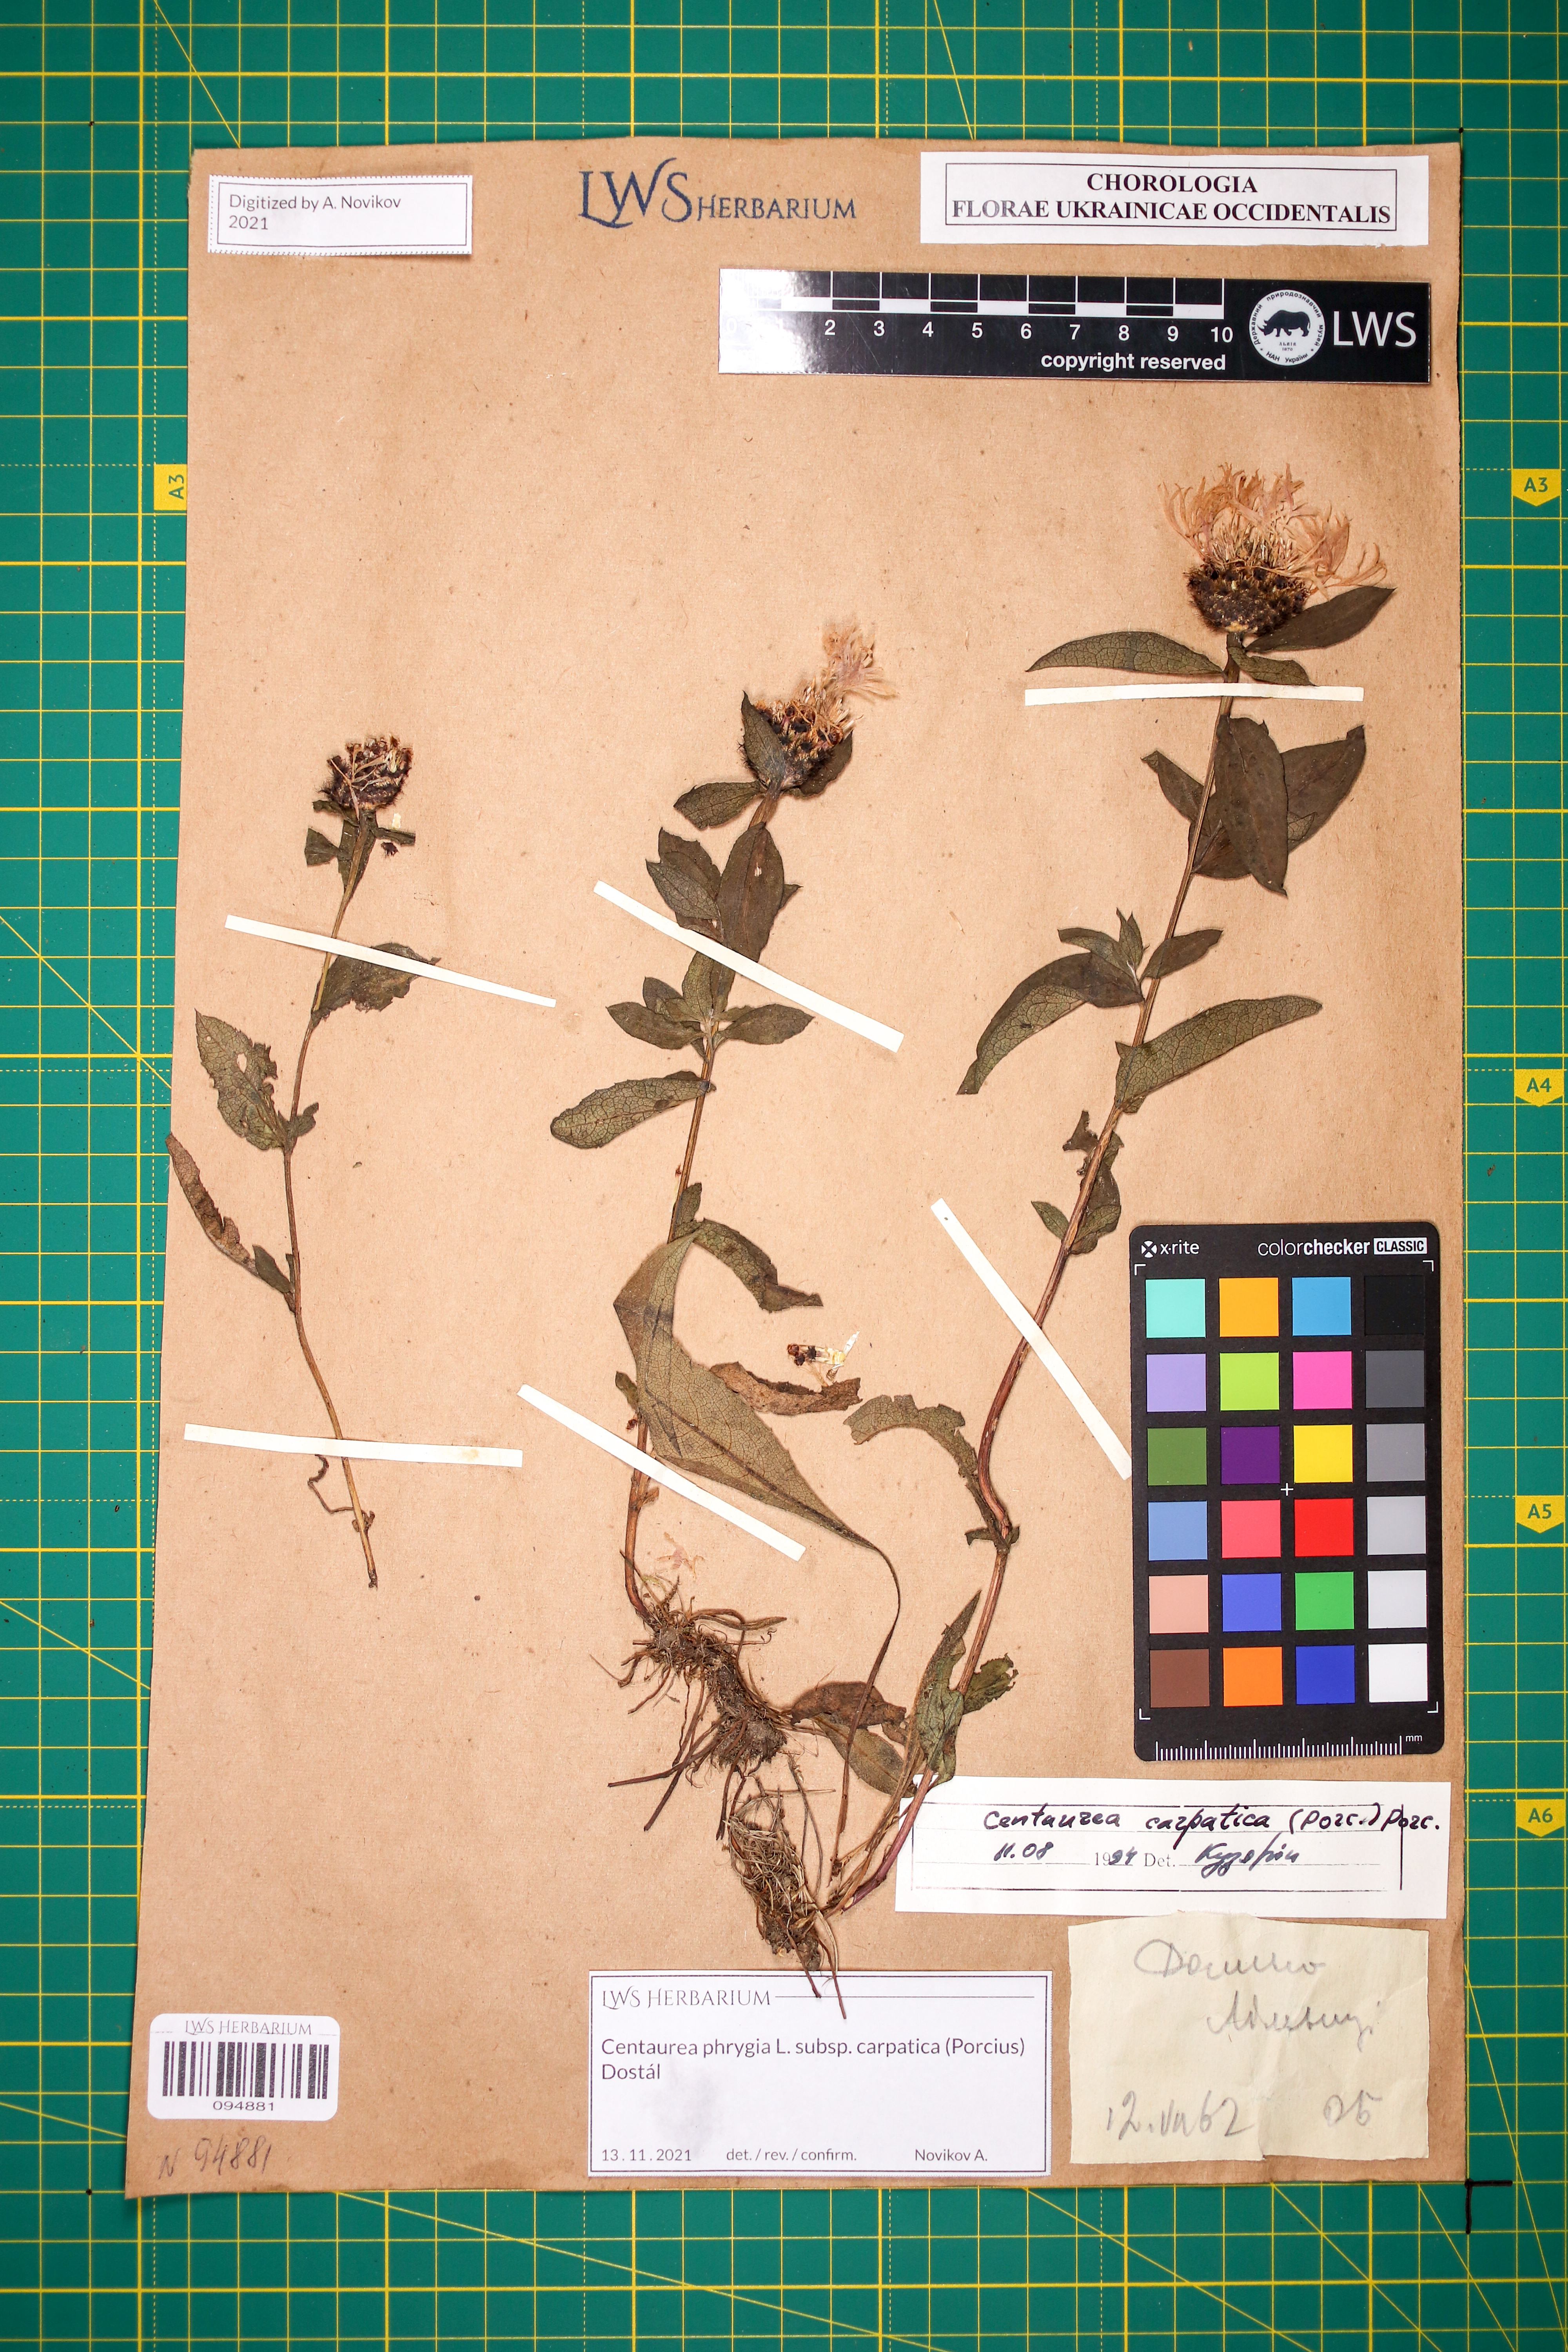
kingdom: Plantae
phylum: Tracheophyta
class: Magnoliopsida
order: Asterales
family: Asteraceae
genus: Centaurea
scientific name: Centaurea phrygia
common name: Wig knapweed
